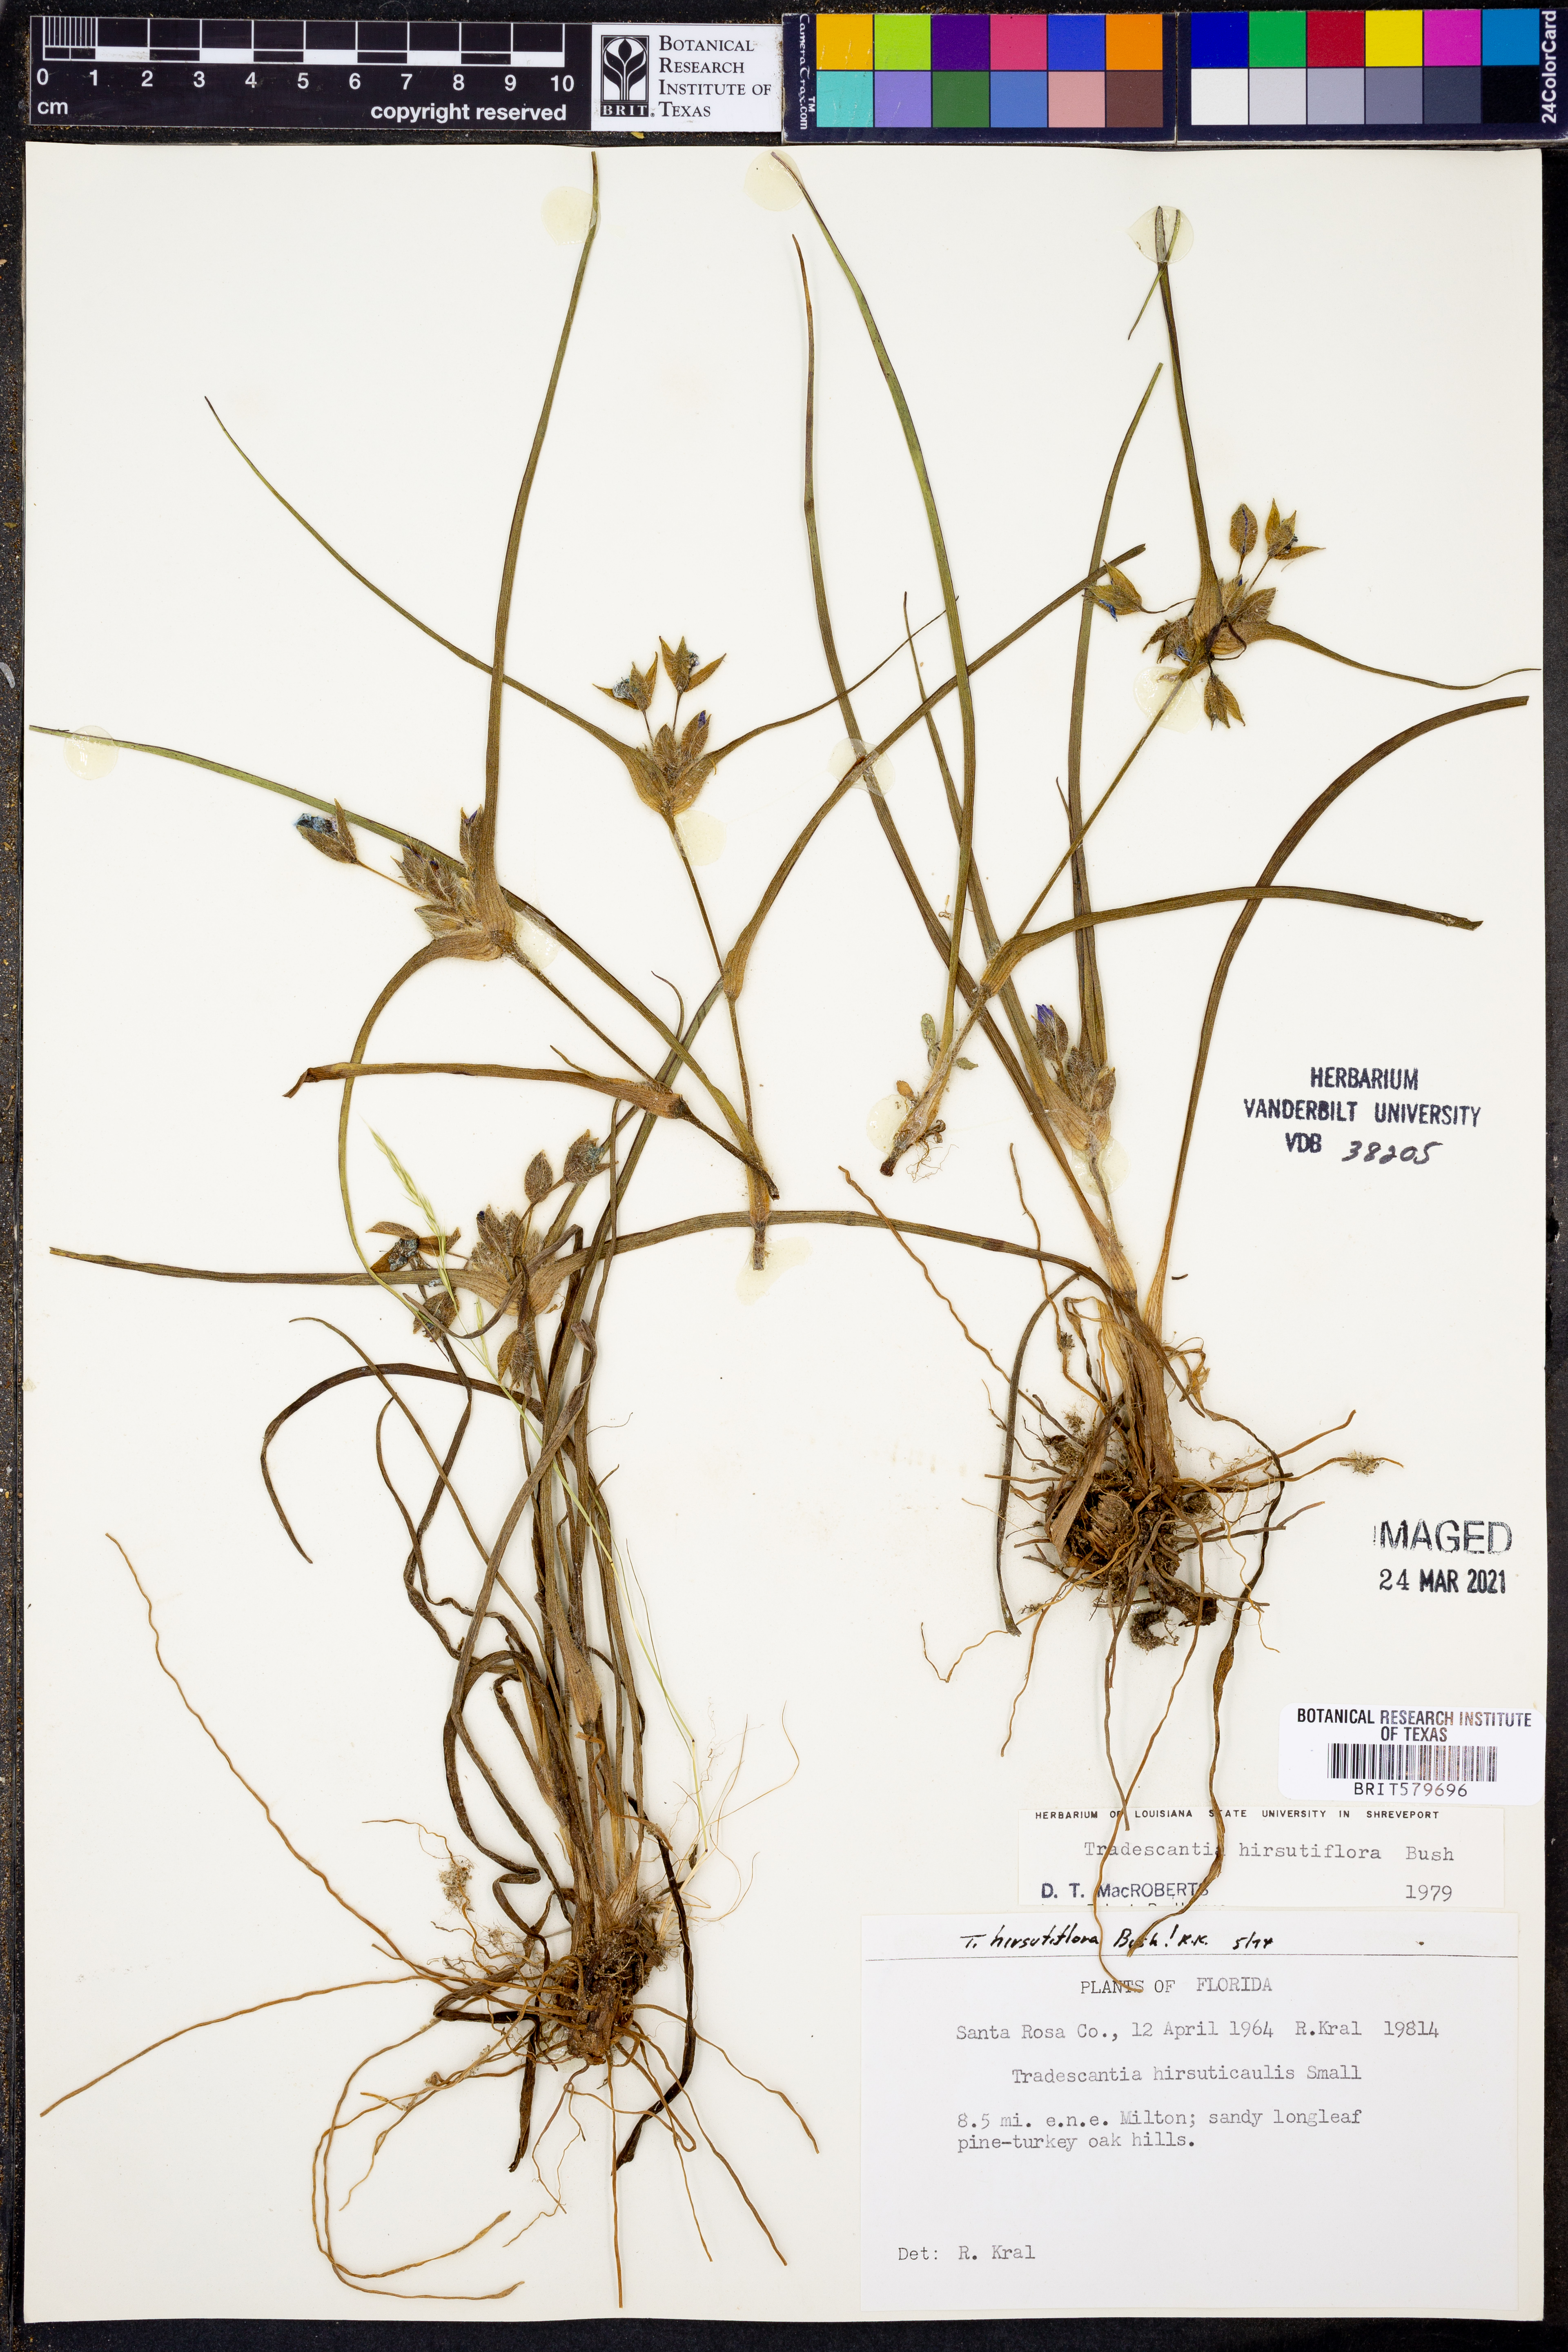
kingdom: Plantae
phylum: Tracheophyta
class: Liliopsida
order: Commelinales
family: Commelinaceae
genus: Tradescantia
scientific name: Tradescantia hirsutiflora
